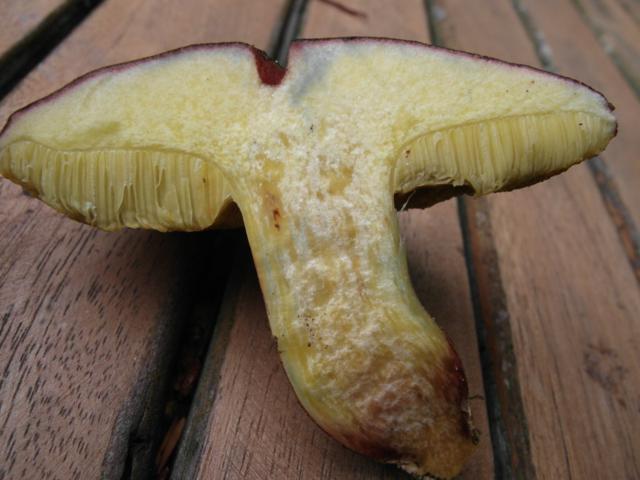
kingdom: Fungi
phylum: Basidiomycota
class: Agaricomycetes
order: Boletales
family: Boletaceae
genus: Xerocomellus
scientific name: Xerocomellus pruinatus
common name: dugget rørhat
